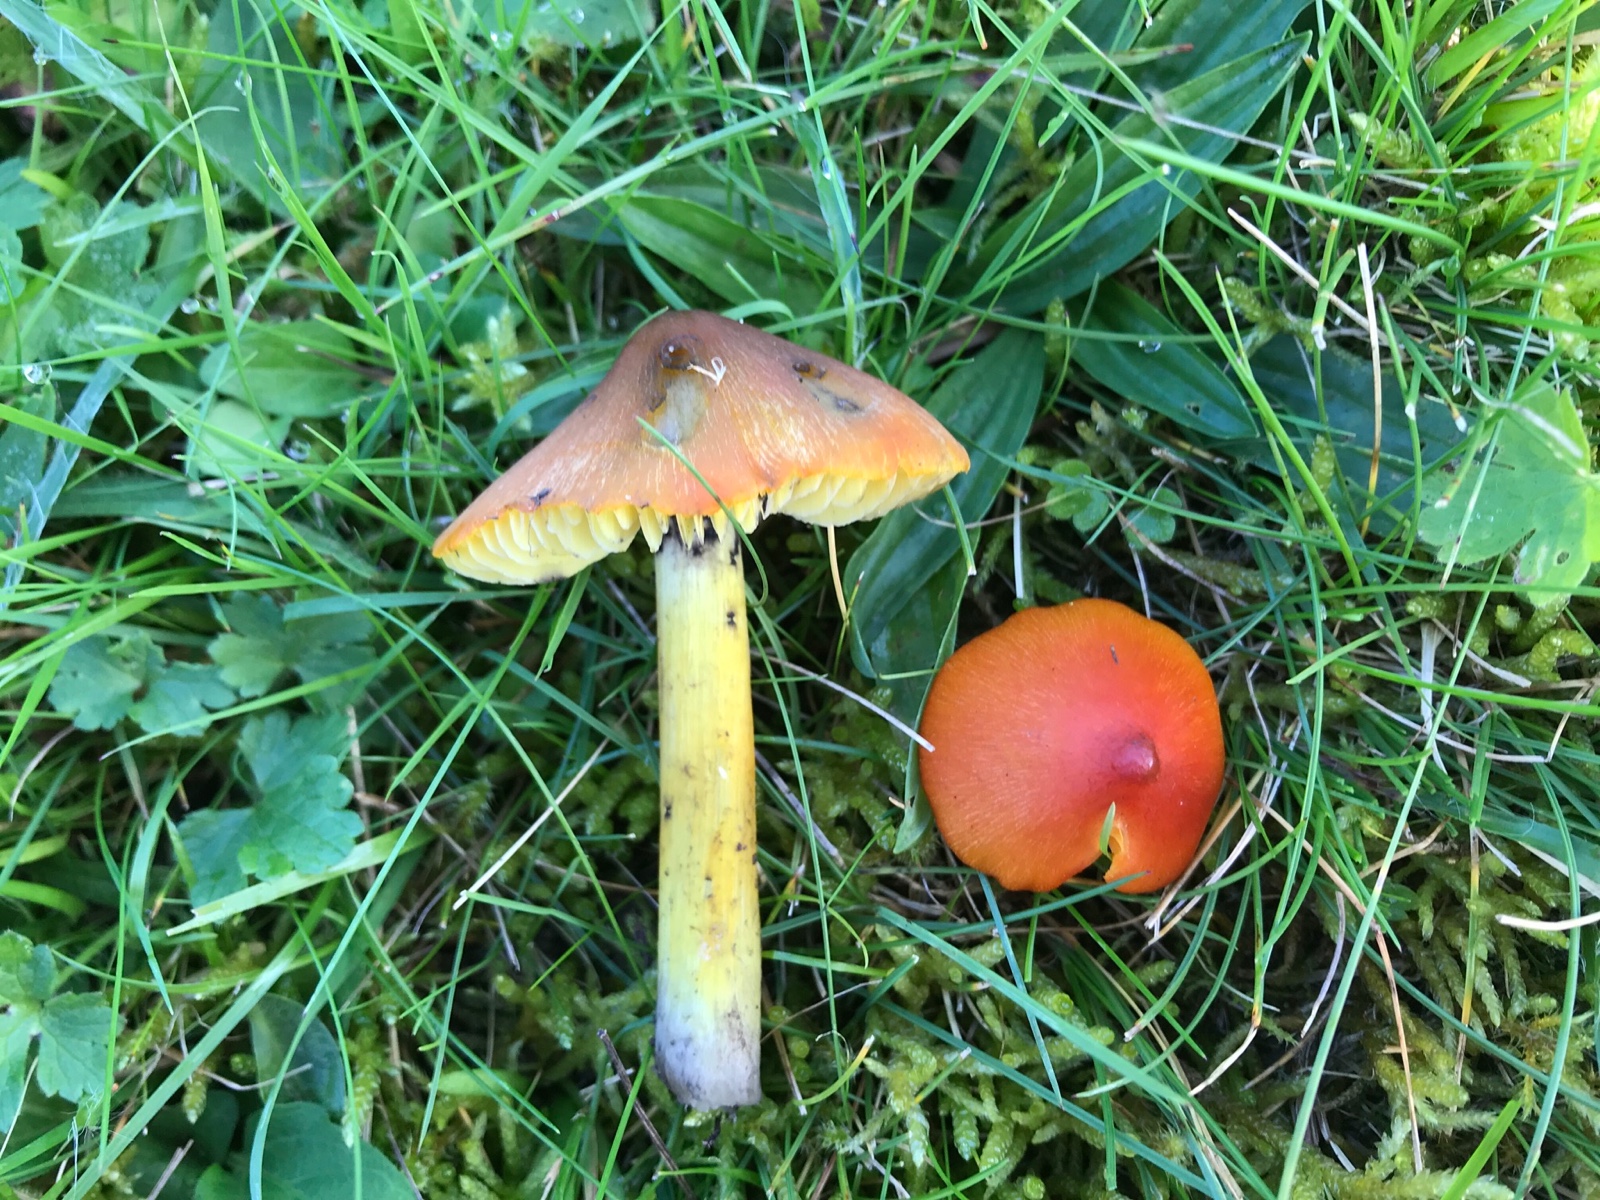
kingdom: Fungi
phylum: Basidiomycota
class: Agaricomycetes
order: Agaricales
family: Hygrophoraceae
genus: Hygrocybe
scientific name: Hygrocybe conica
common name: kegle-vokshat
